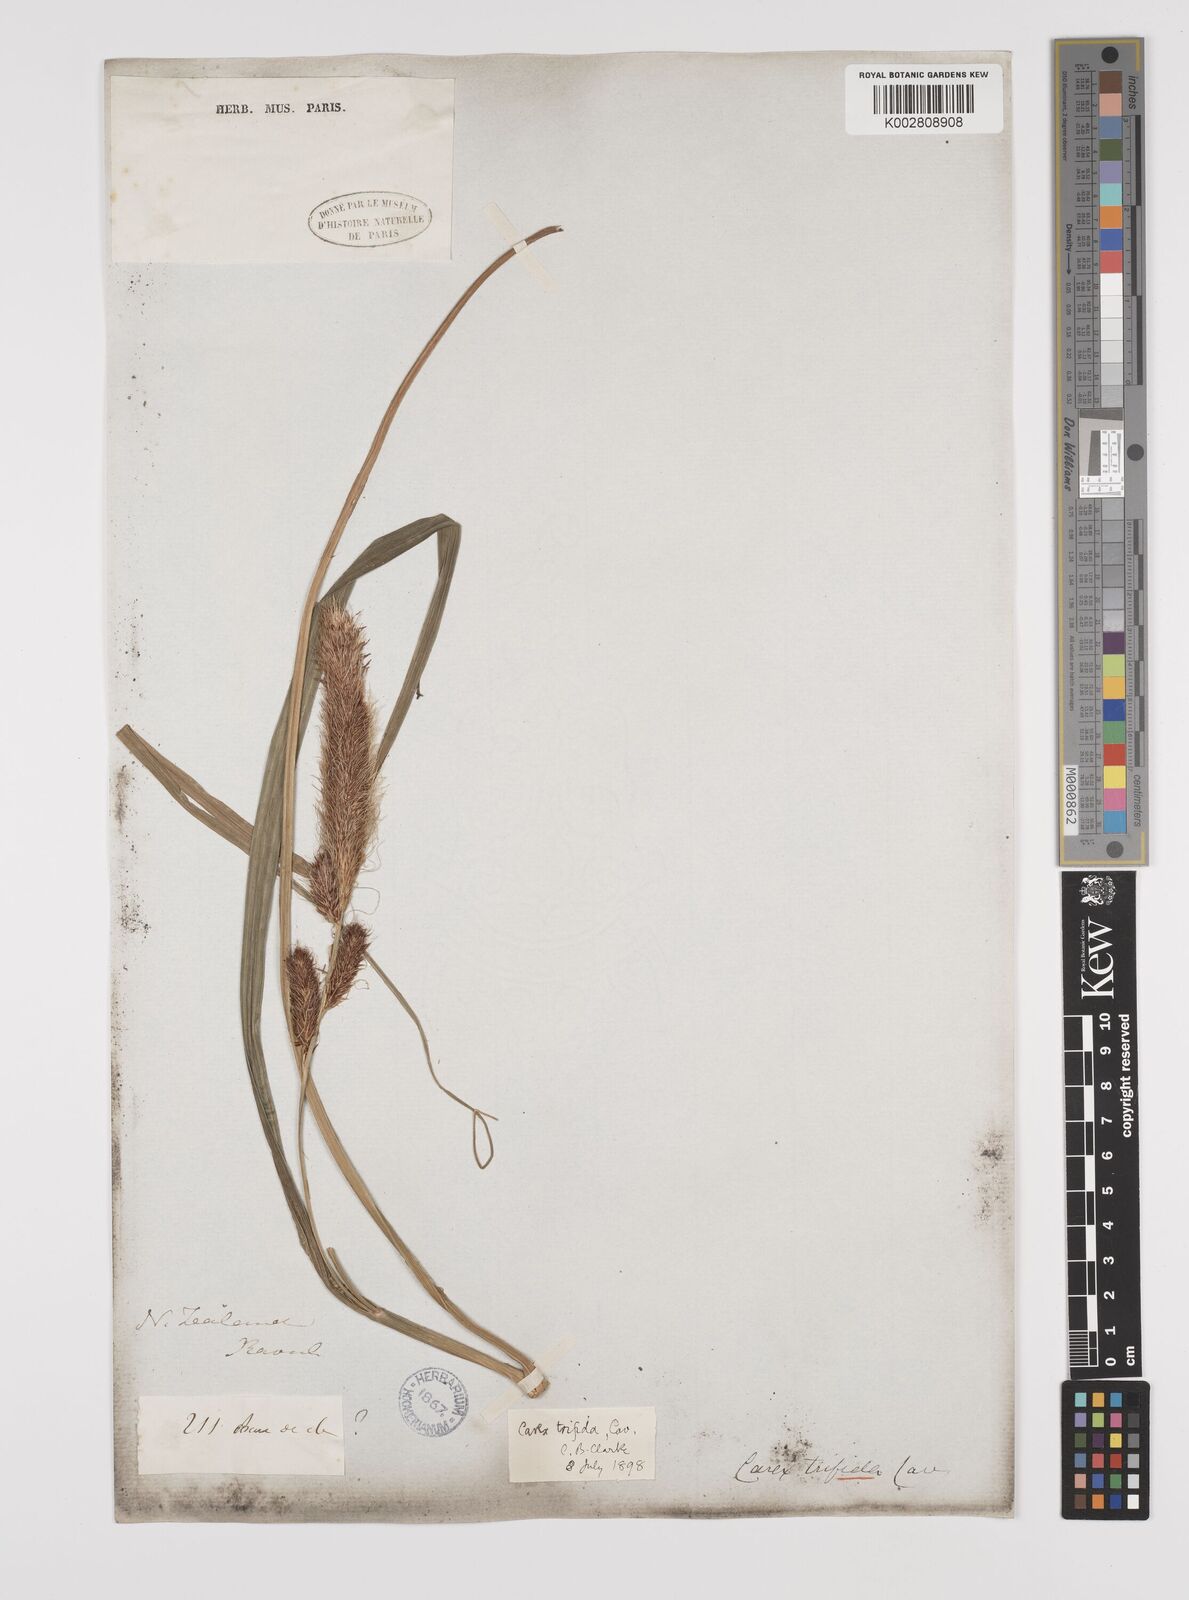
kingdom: Plantae
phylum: Tracheophyta
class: Liliopsida
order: Poales
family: Cyperaceae
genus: Carex
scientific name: Carex trifida
